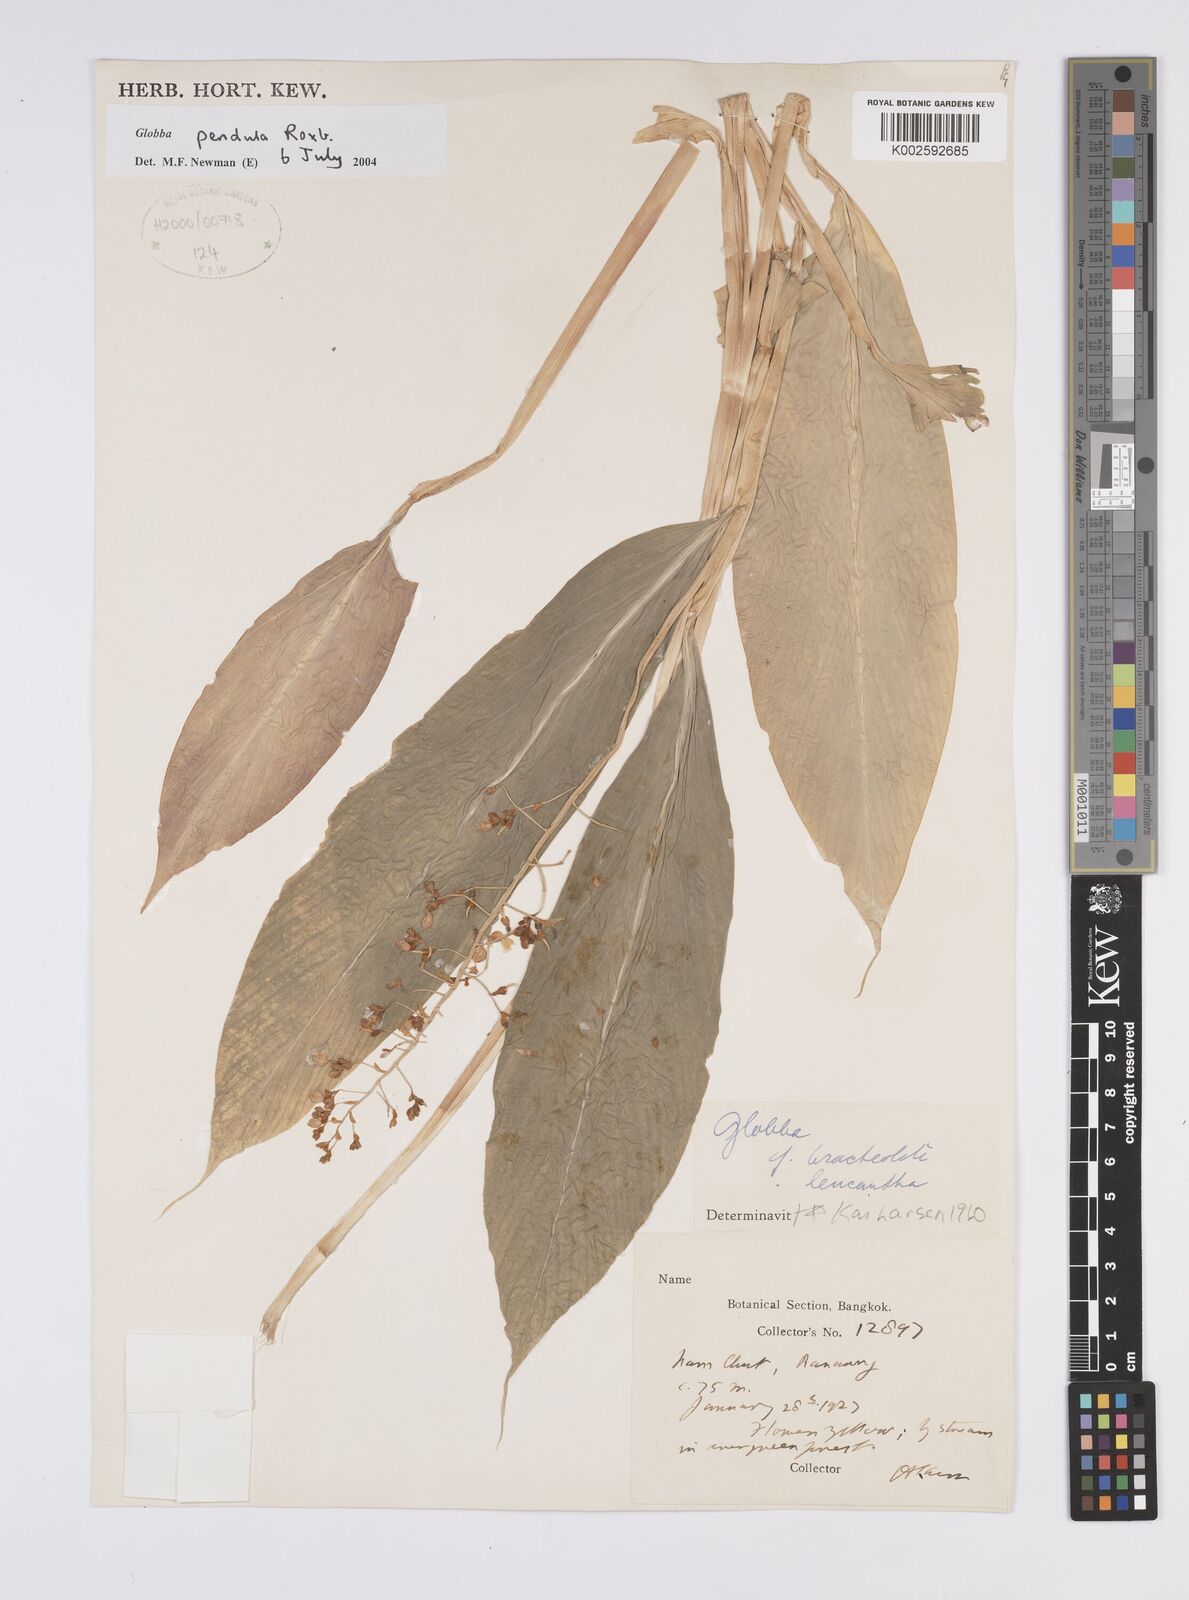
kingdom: Plantae
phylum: Tracheophyta
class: Liliopsida
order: Zingiberales
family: Zingiberaceae
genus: Globba
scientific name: Globba pendula
